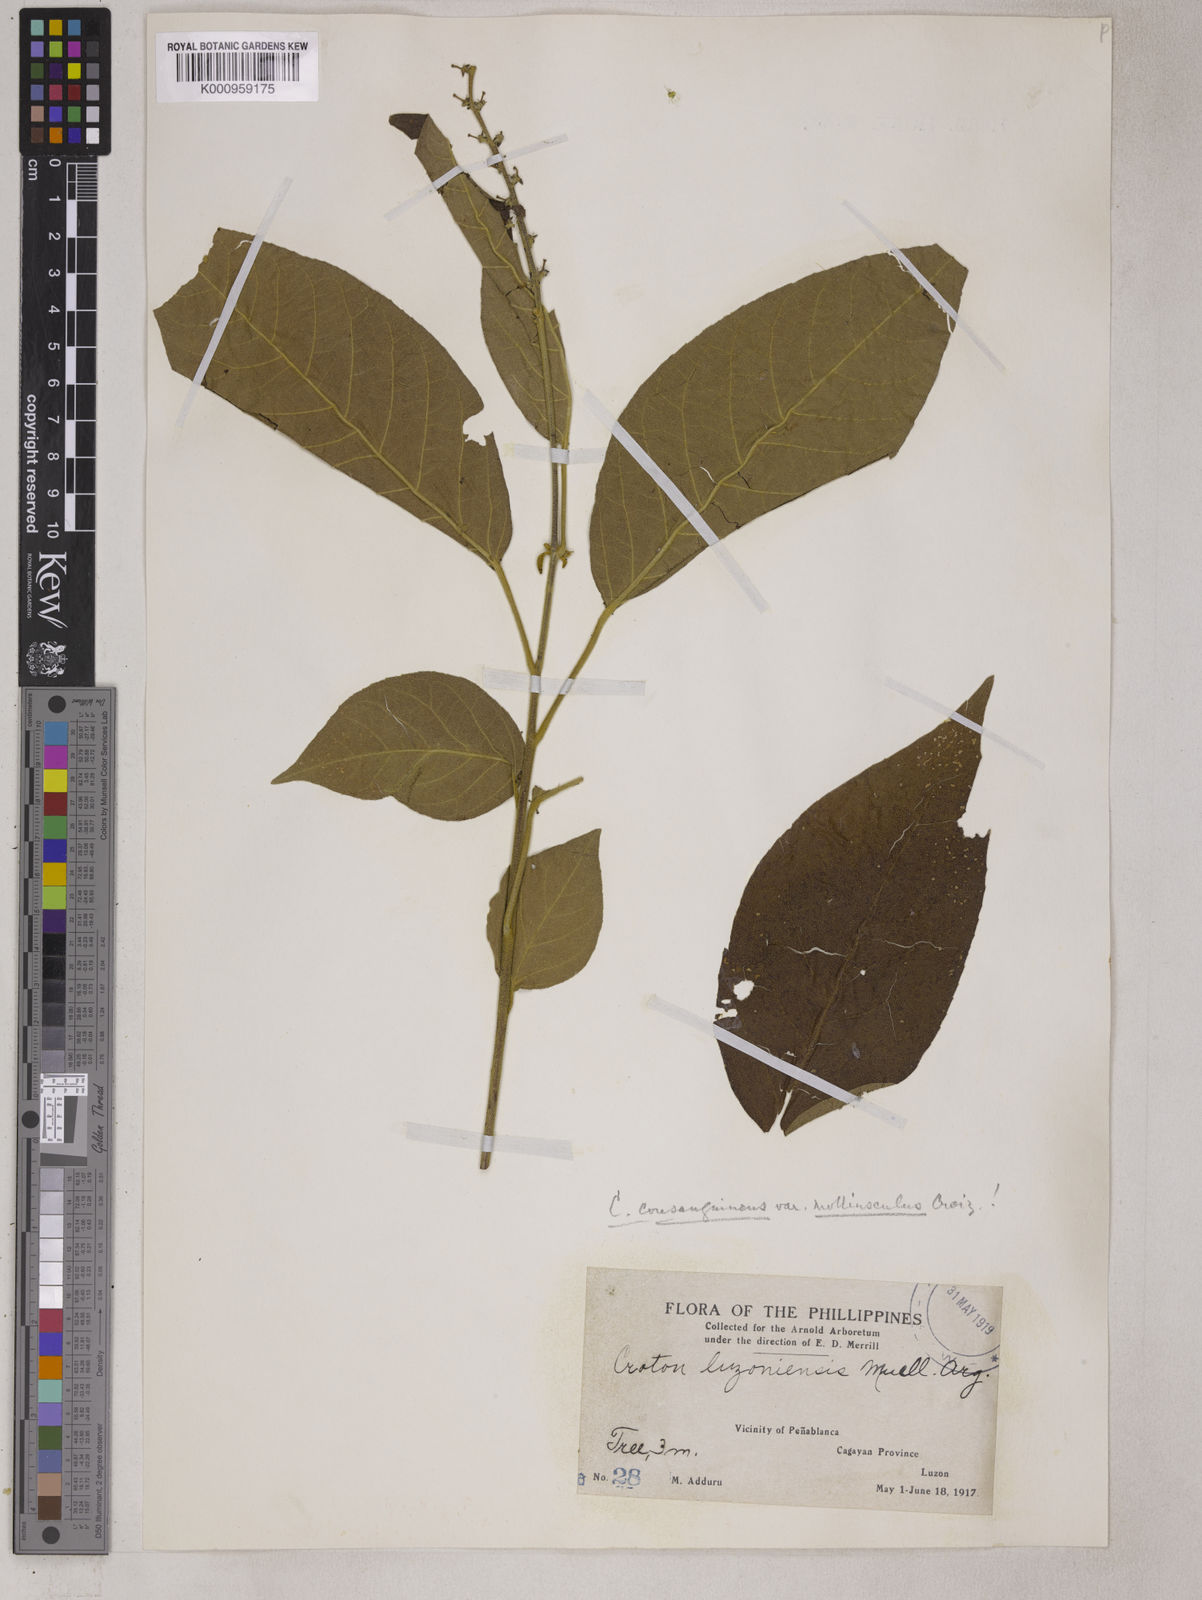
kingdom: Plantae
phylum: Tracheophyta
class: Magnoliopsida
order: Malpighiales
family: Euphorbiaceae
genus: Croton
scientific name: Croton
